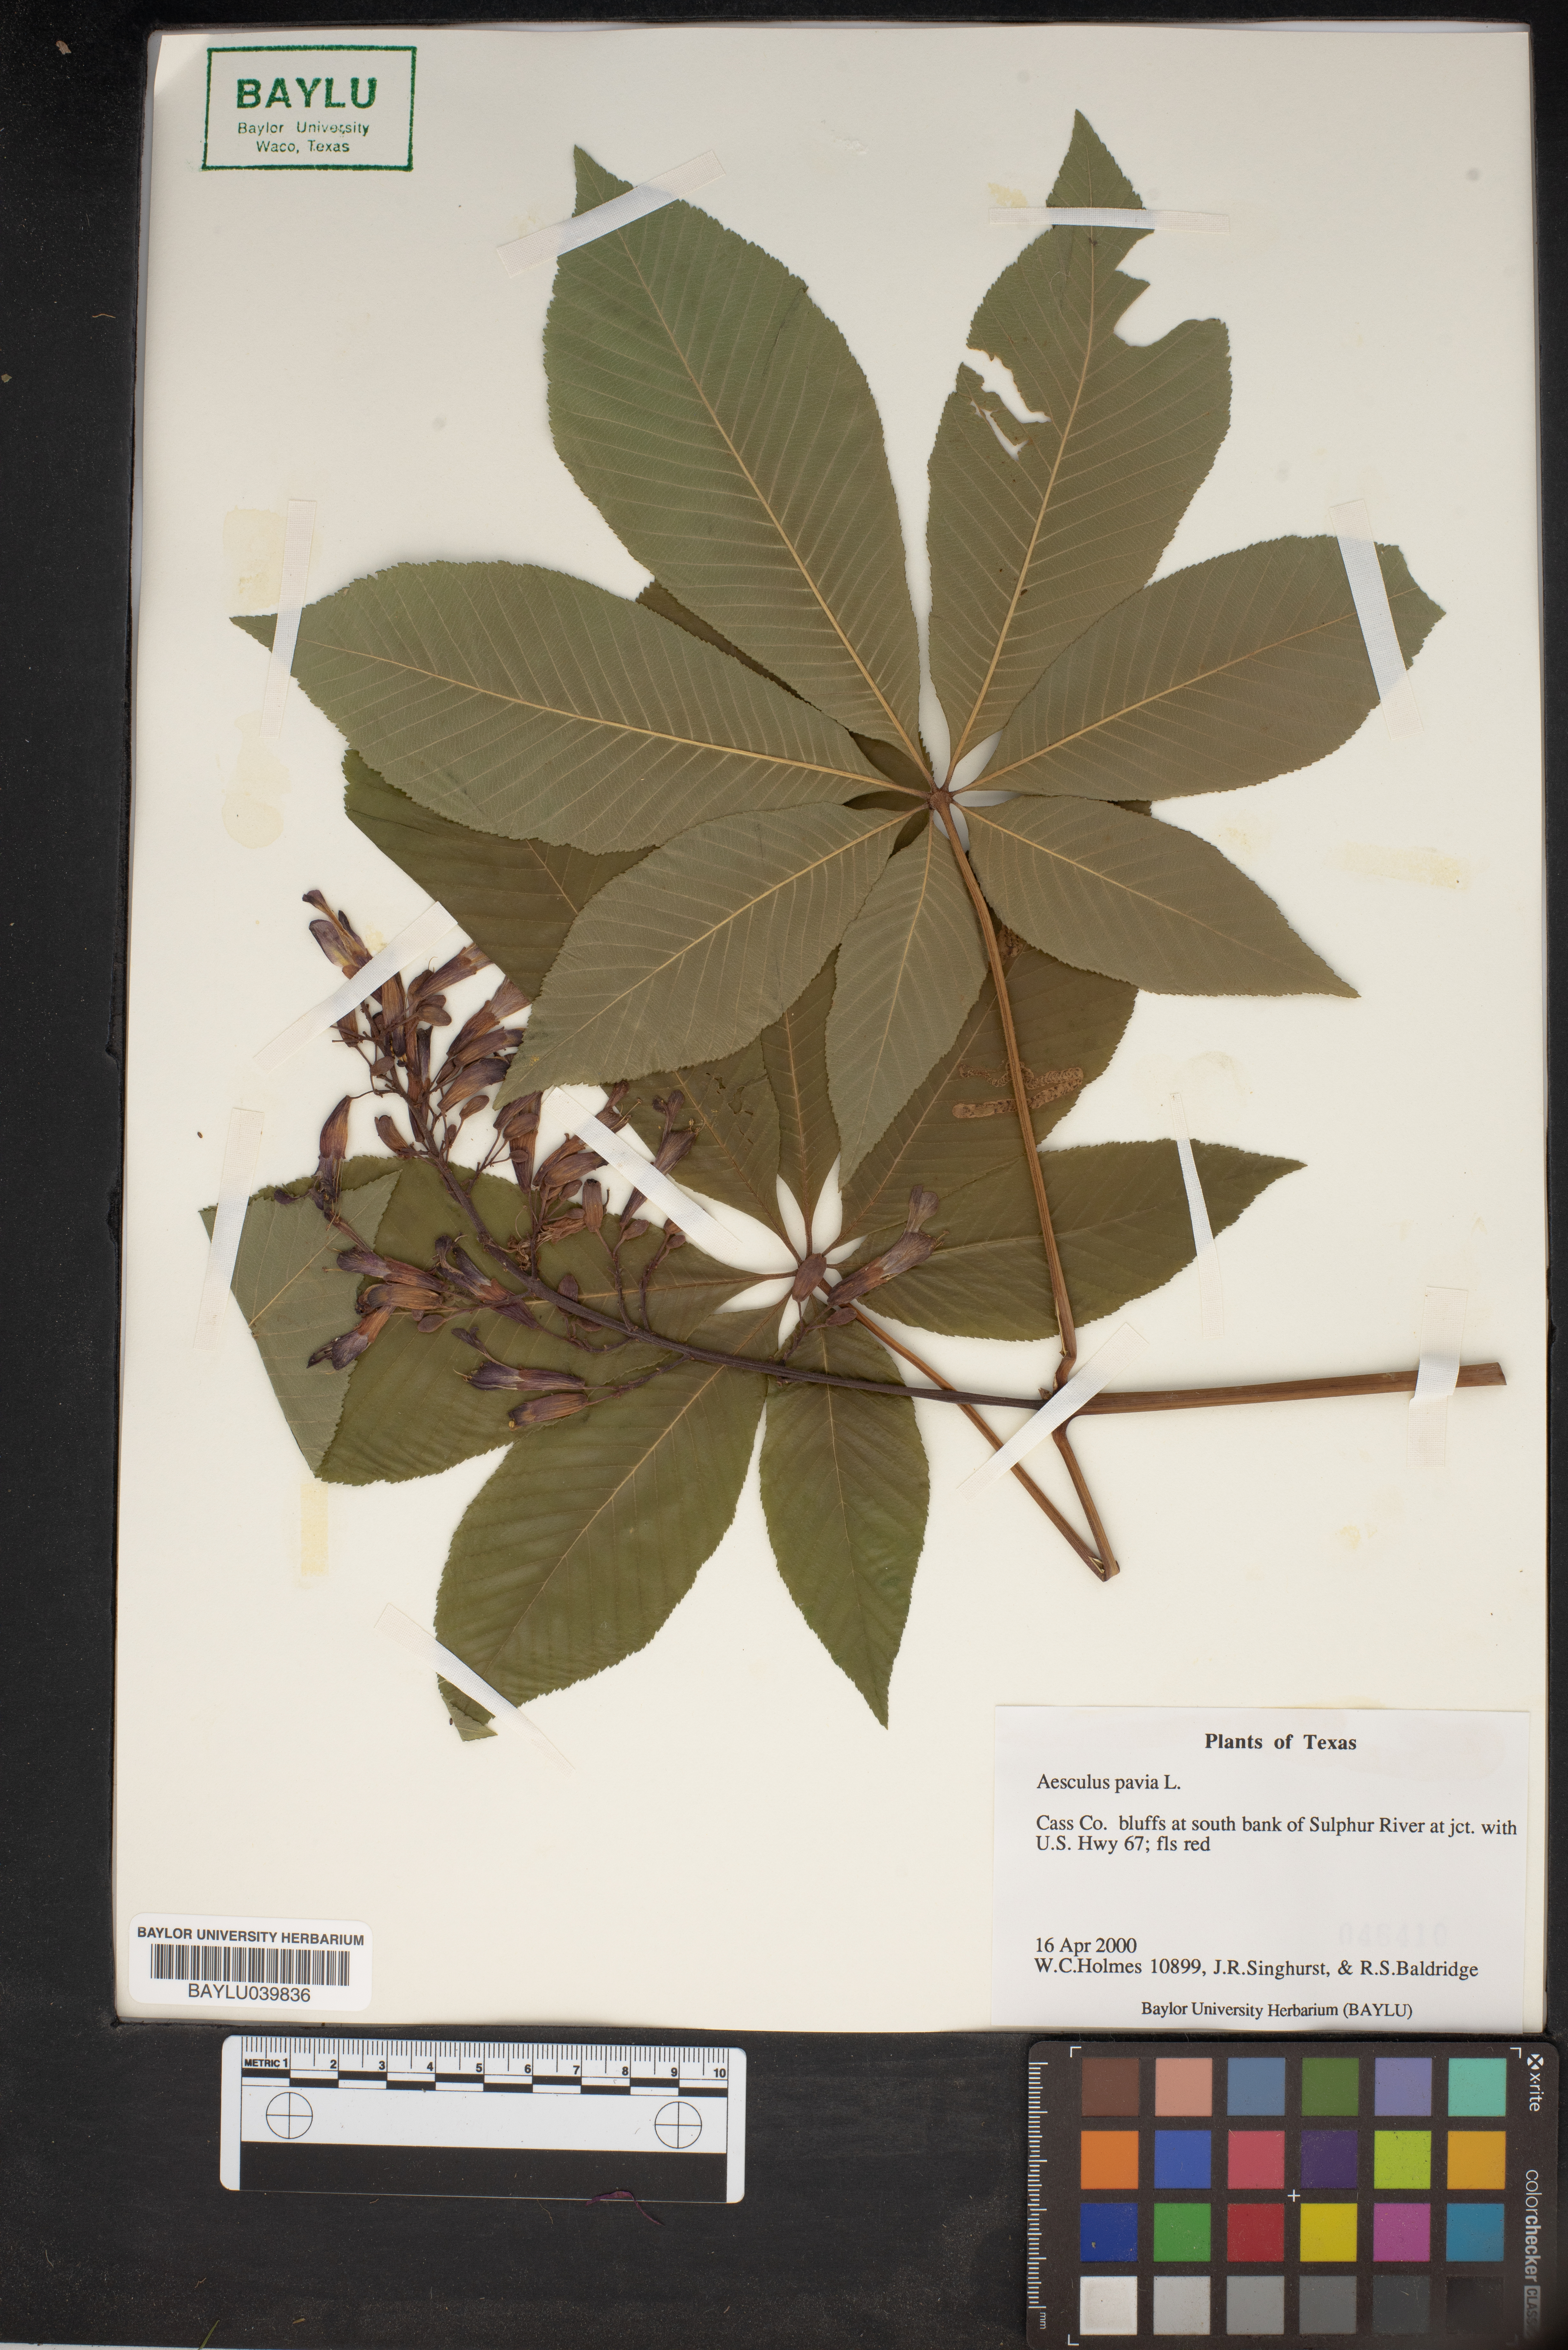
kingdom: Plantae
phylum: Tracheophyta
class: Magnoliopsida
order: Sapindales
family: Sapindaceae
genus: Aesculus
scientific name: Aesculus pavia
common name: Red buckeye
